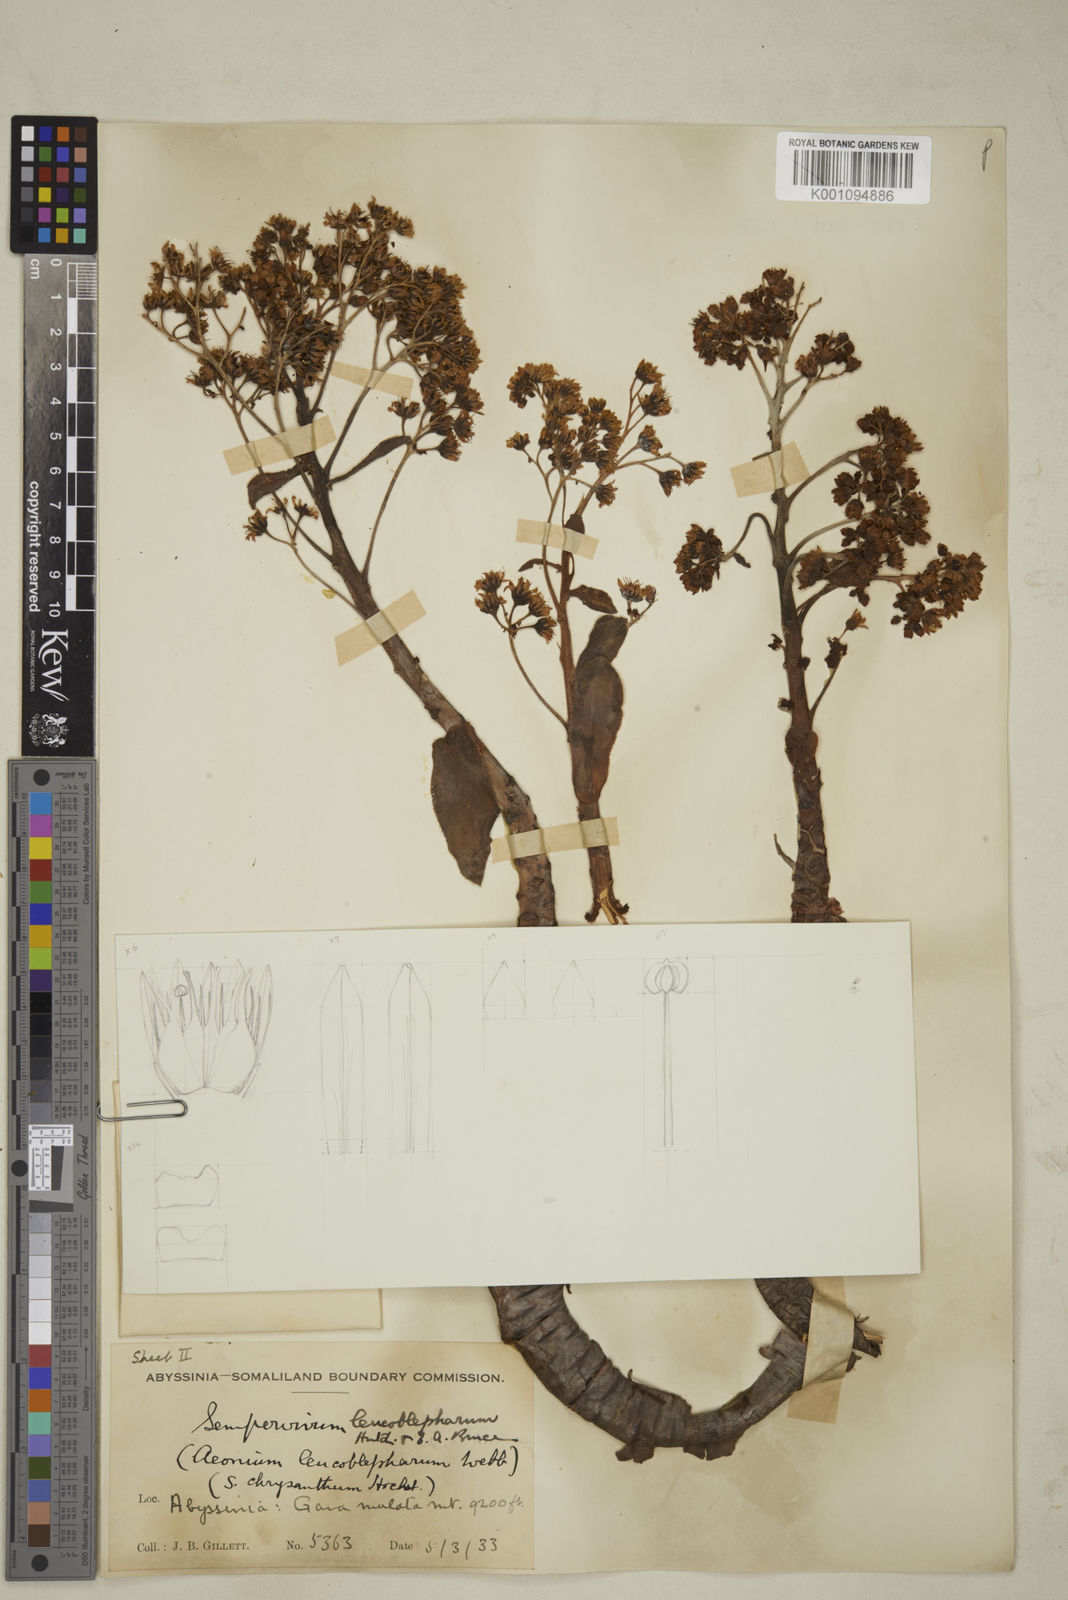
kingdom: Plantae
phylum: Tracheophyta
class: Magnoliopsida
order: Saxifragales
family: Crassulaceae
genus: Aeonium
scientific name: Aeonium leucoblepharum
